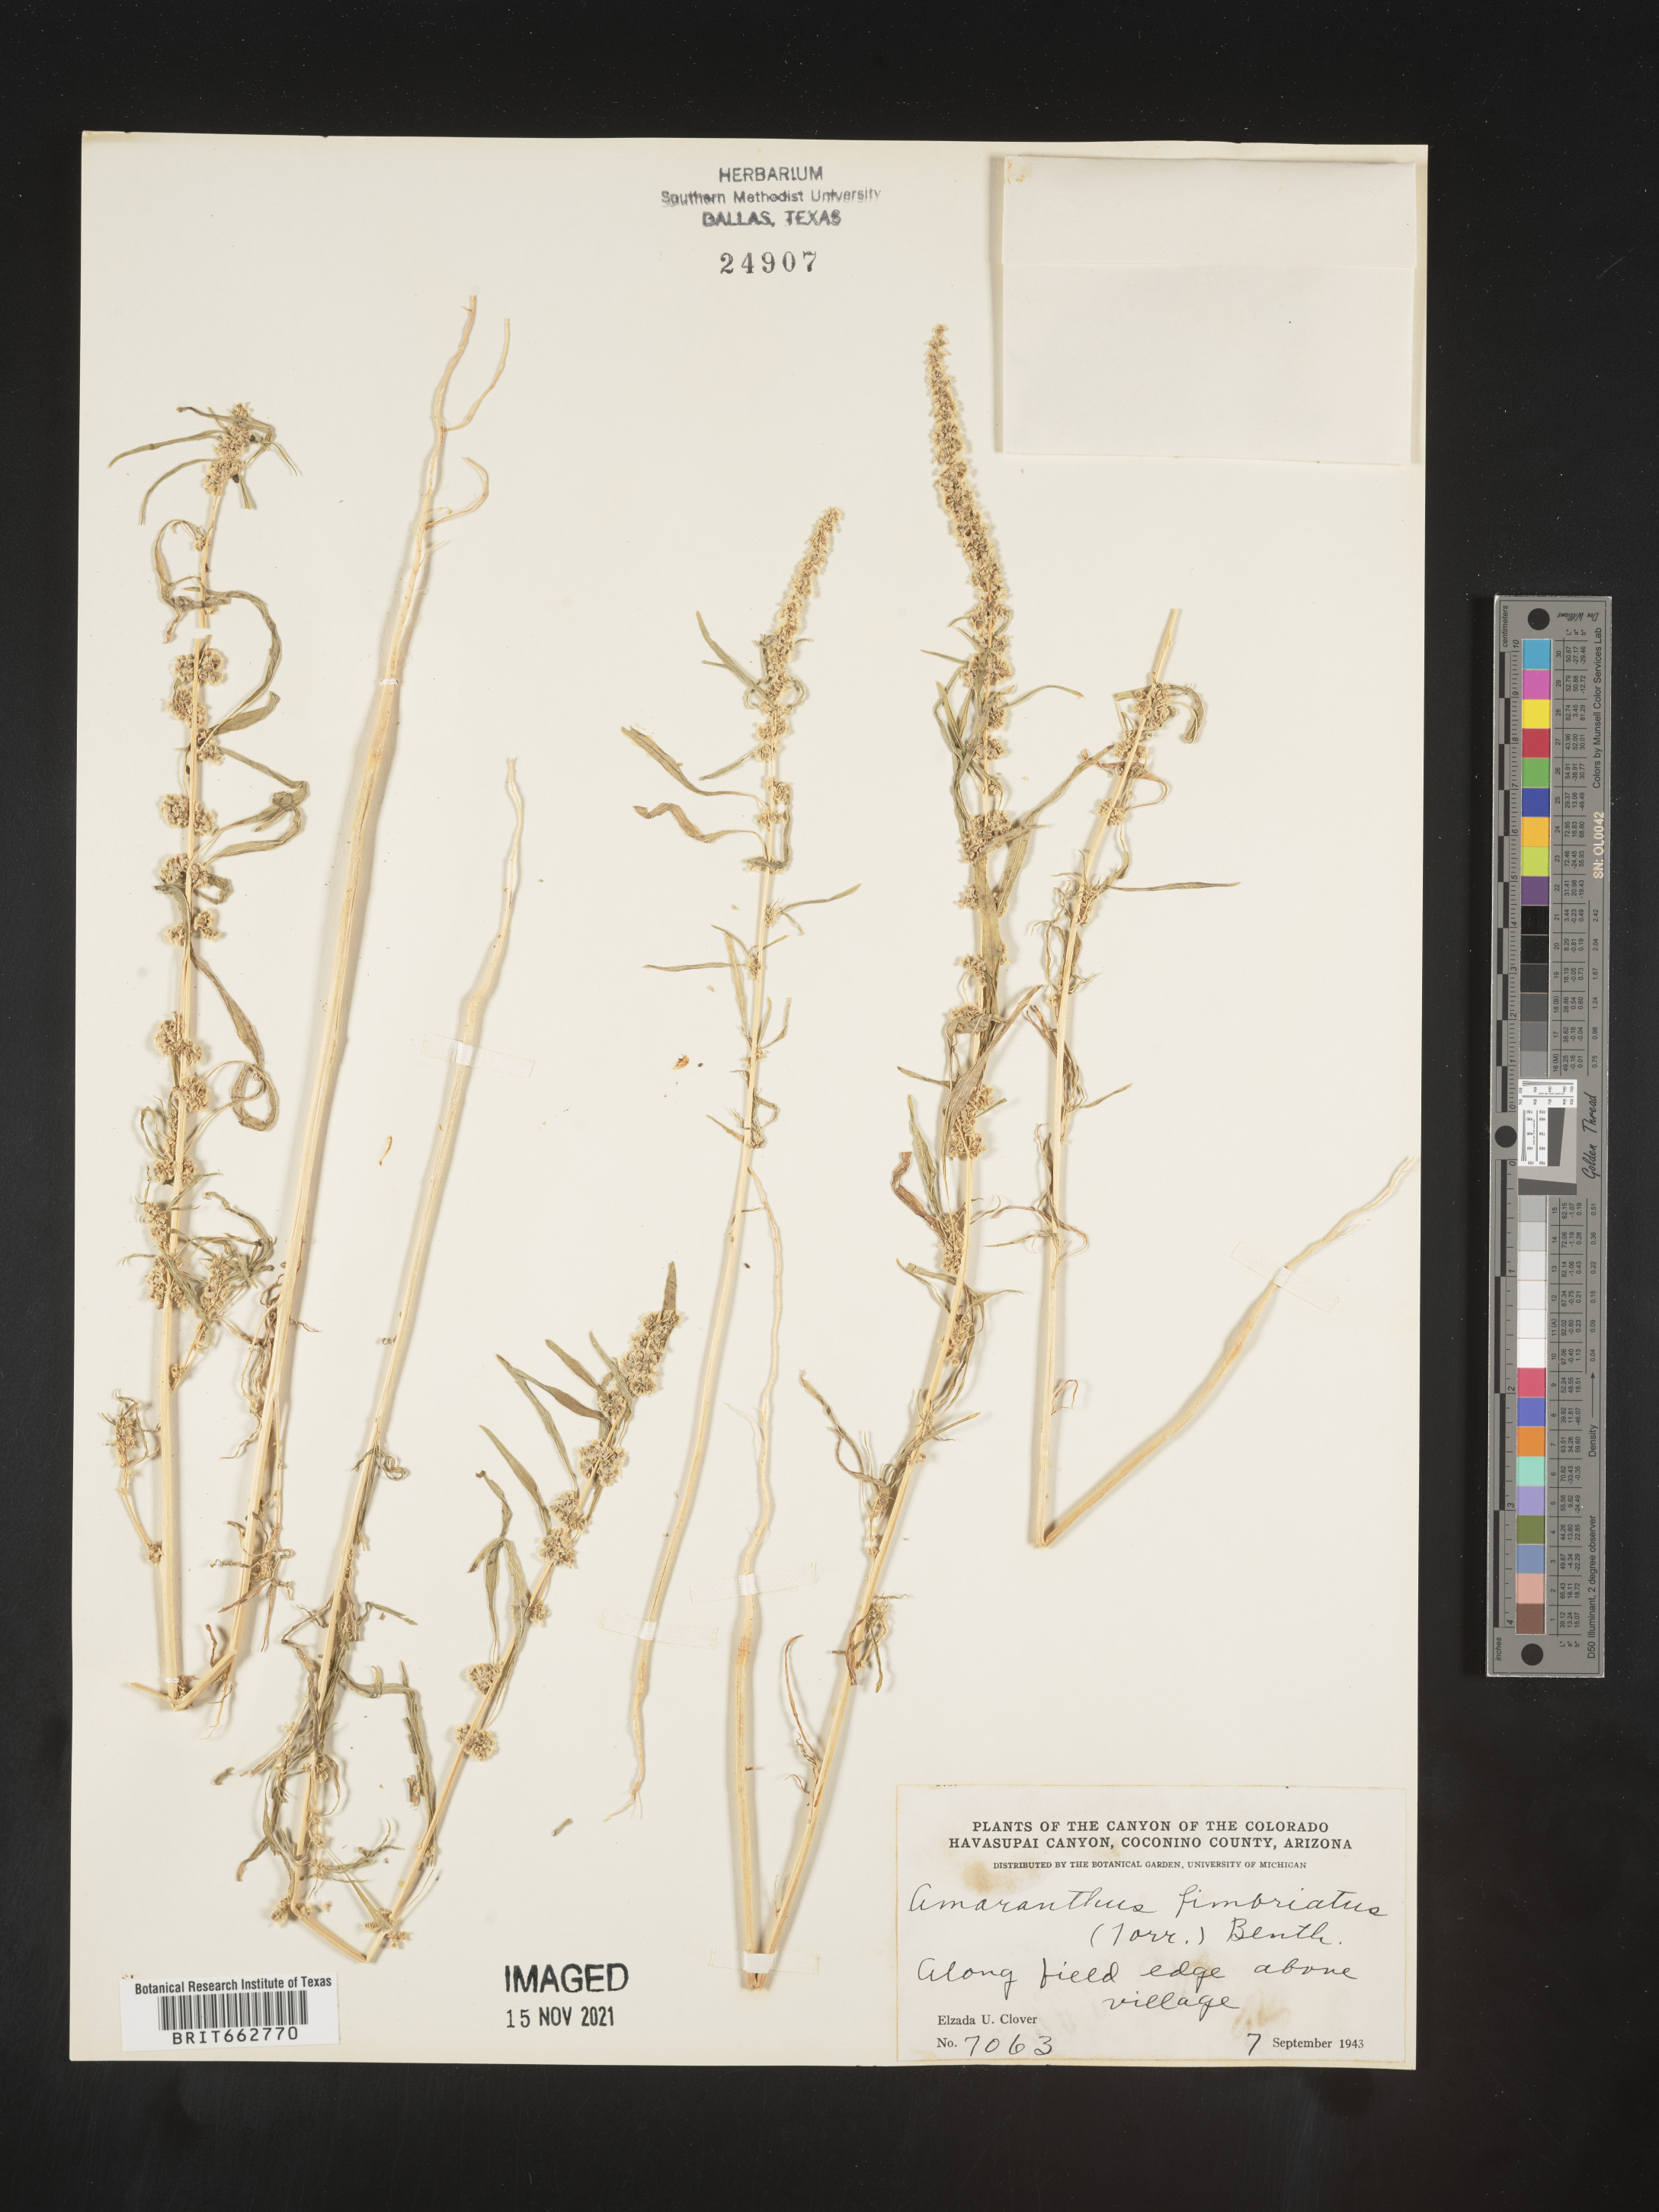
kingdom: Plantae
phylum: Tracheophyta
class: Magnoliopsida
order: Caryophyllales
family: Amaranthaceae
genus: Amaranthus
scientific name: Amaranthus
